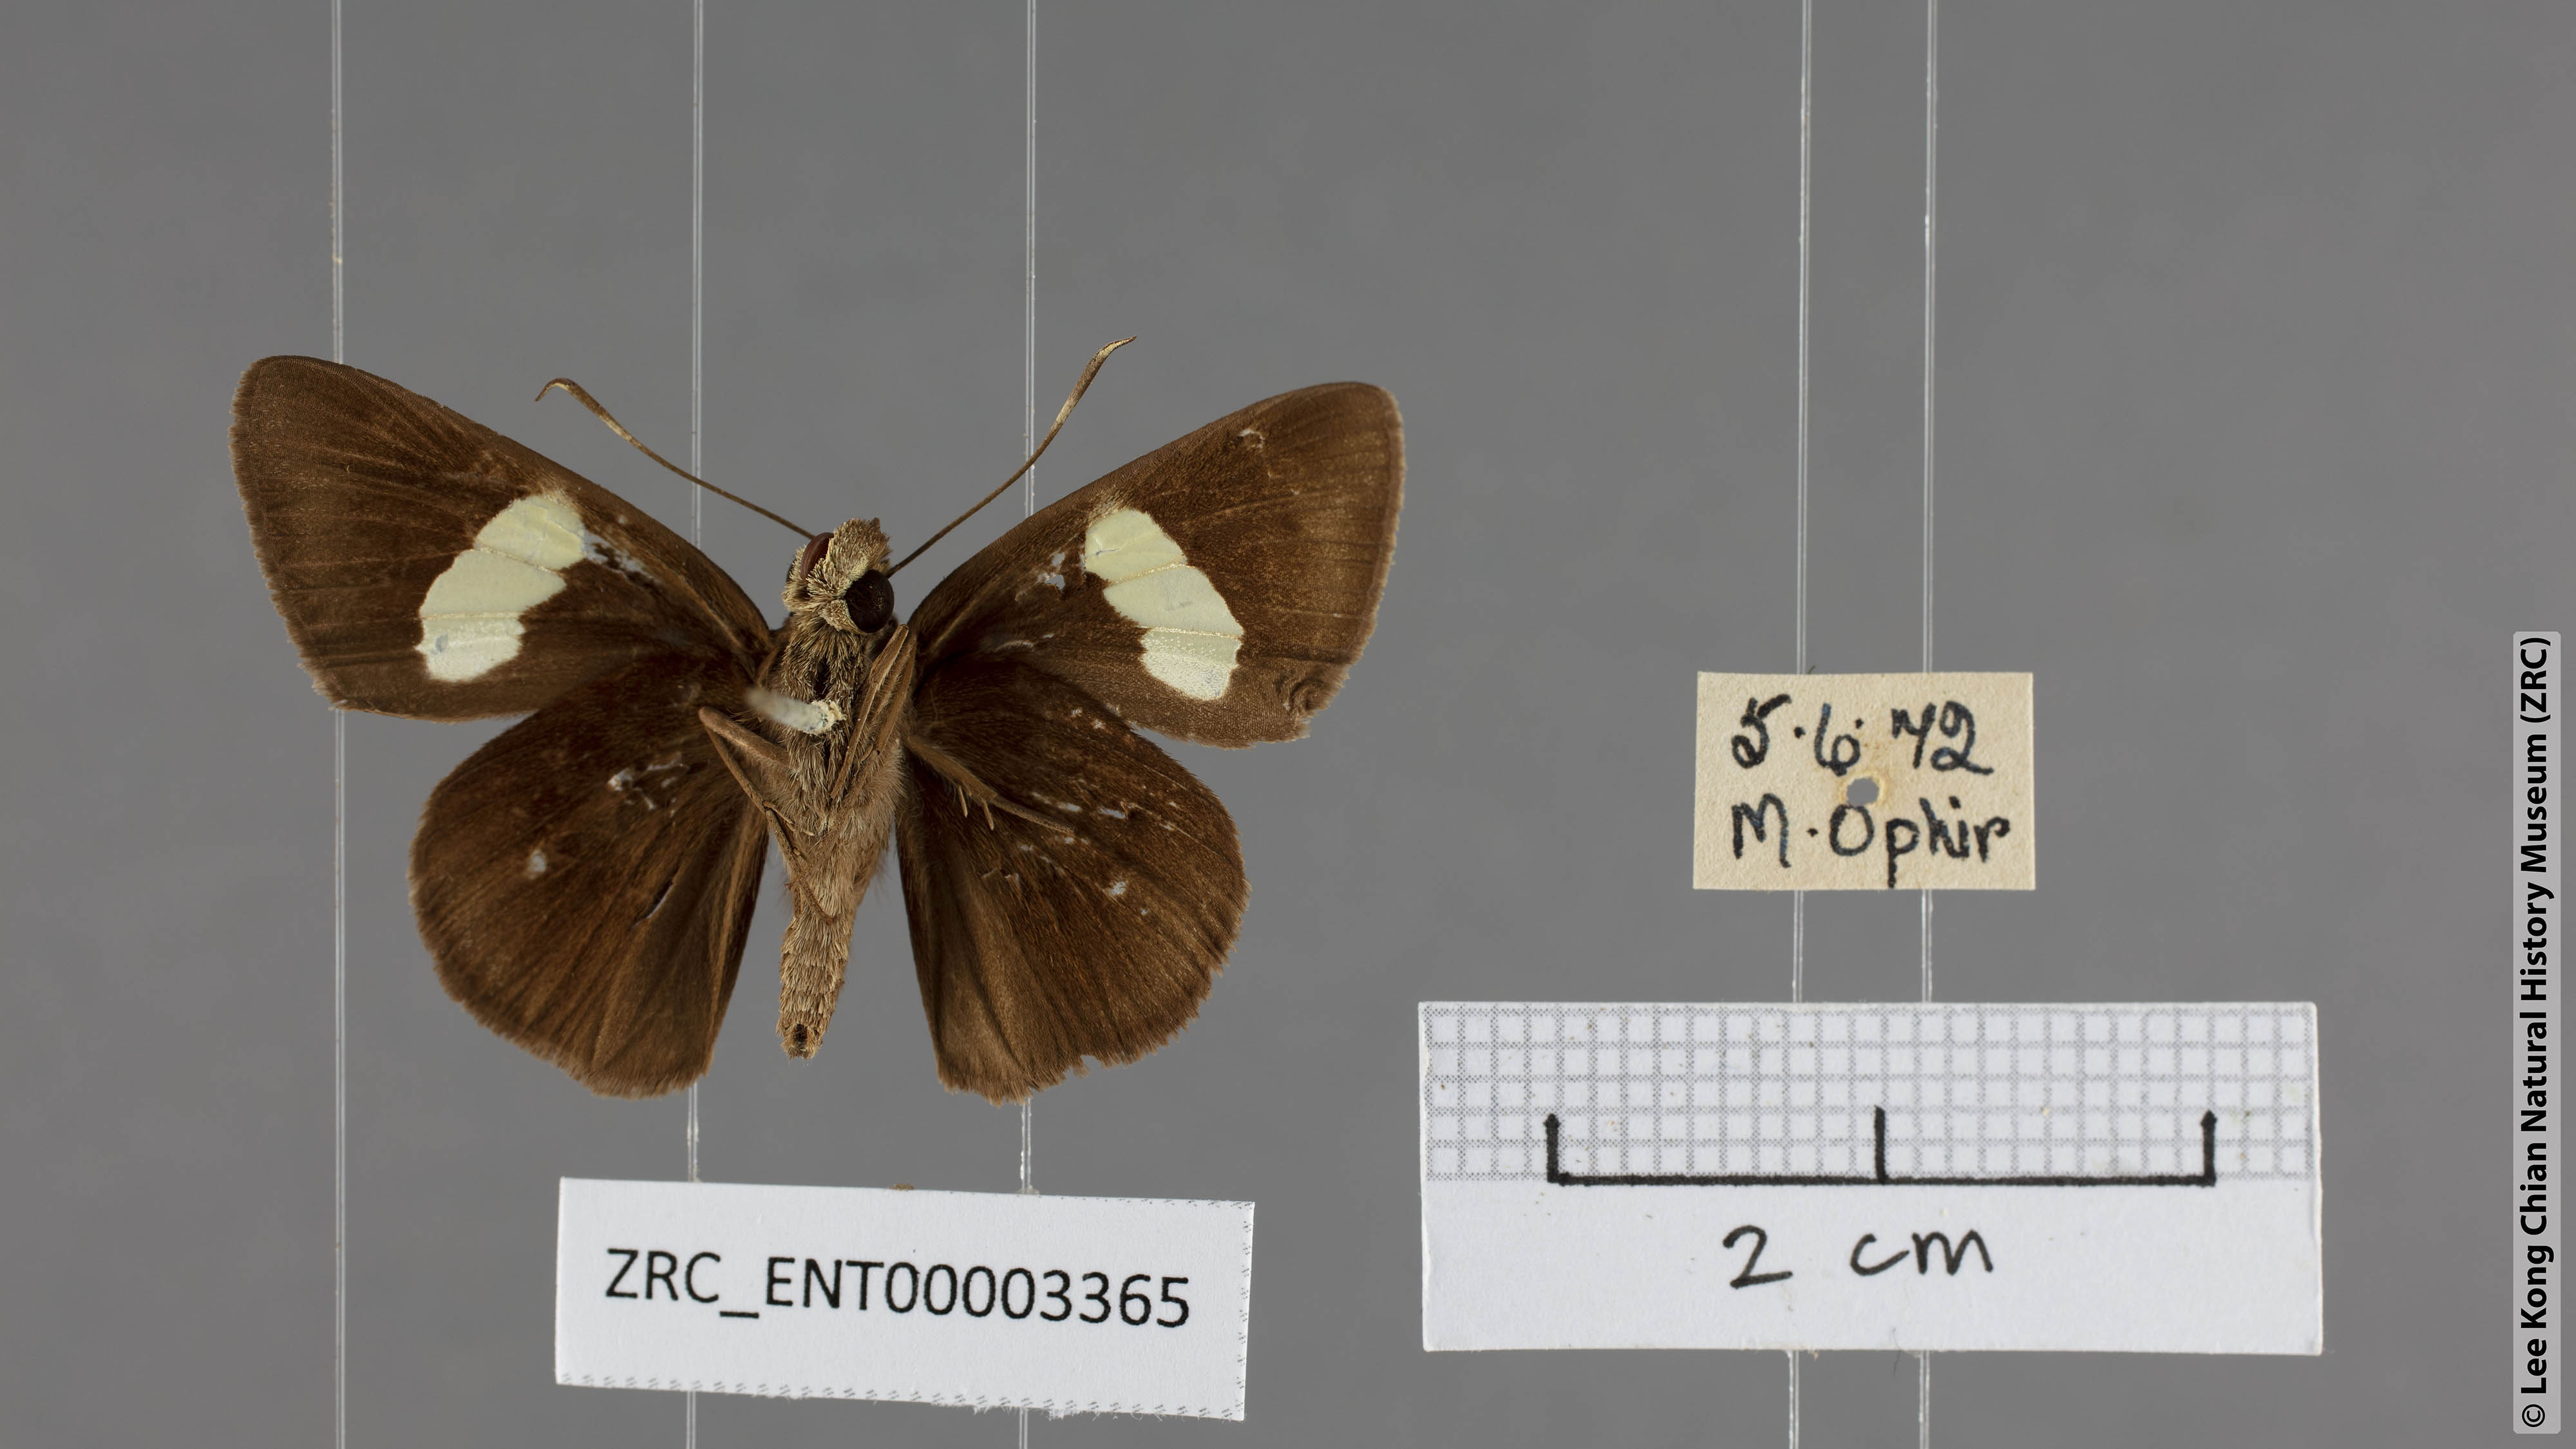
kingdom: Animalia
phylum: Arthropoda
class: Insecta
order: Lepidoptera
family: Hesperiidae
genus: Notocrypta
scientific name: Notocrypta pria
